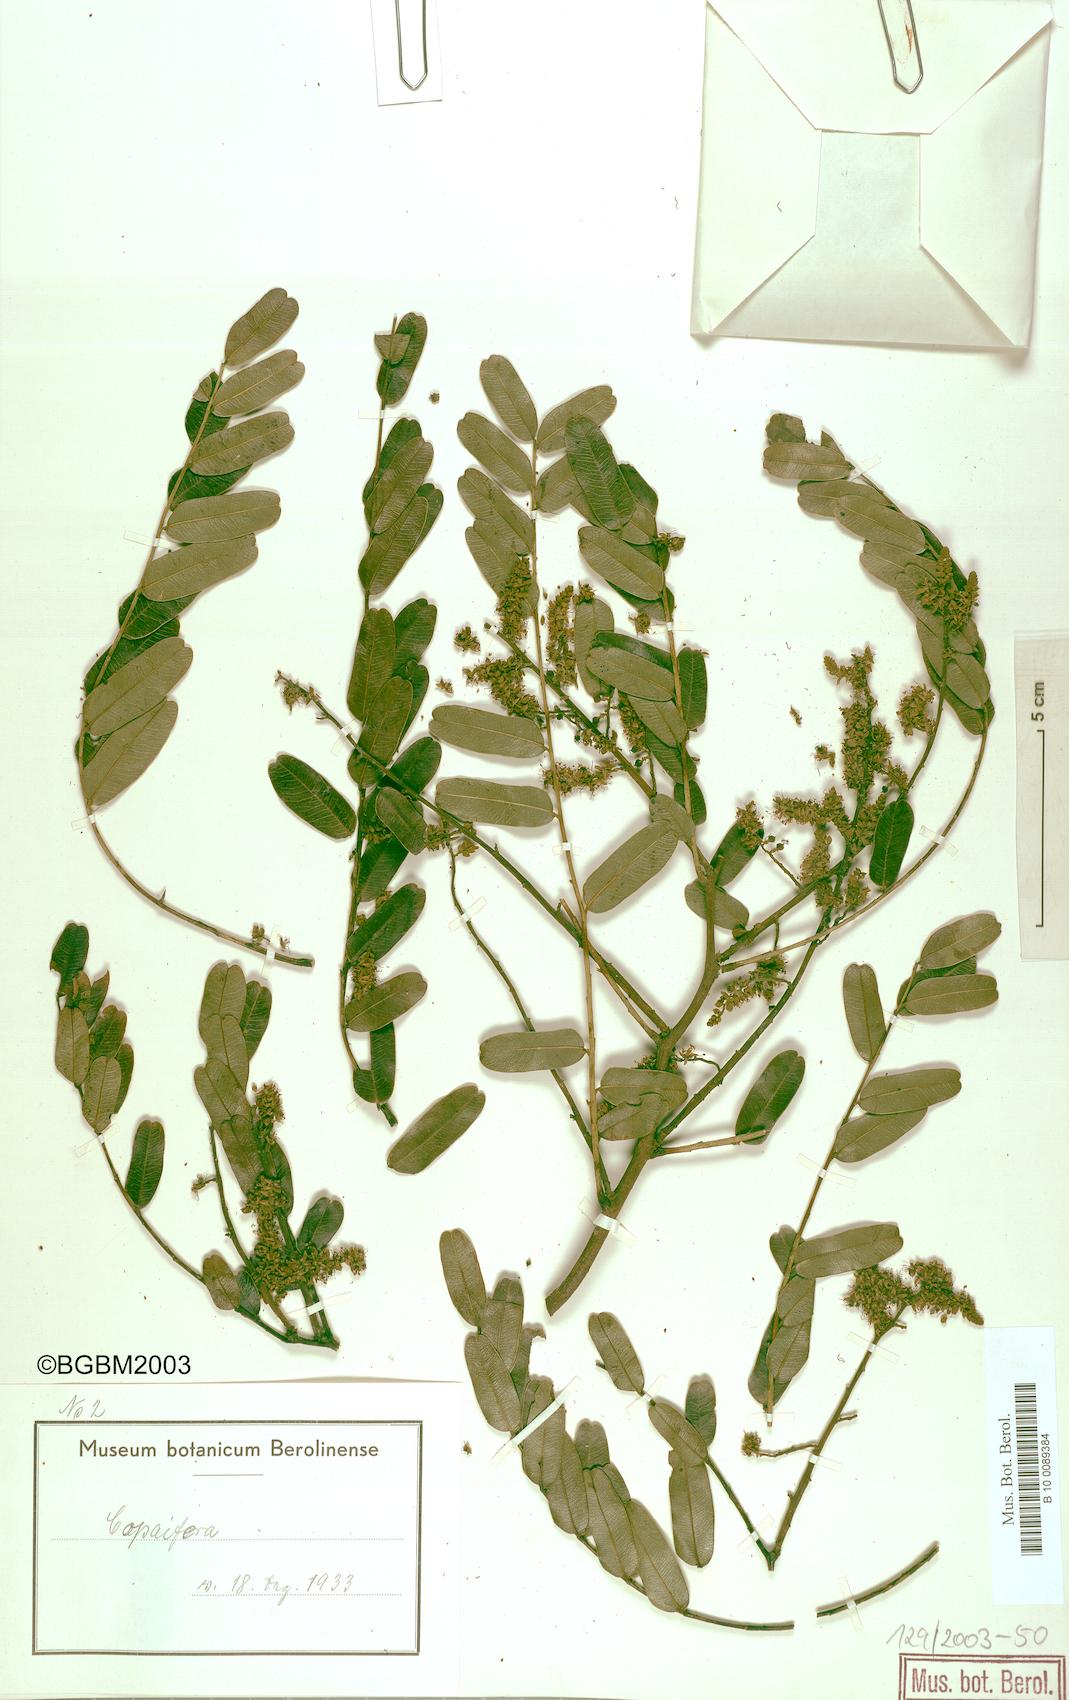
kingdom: Plantae
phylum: Tracheophyta
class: Magnoliopsida
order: Fabales
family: Fabaceae
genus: Copaifera
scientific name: Copaifera mildbraedii
